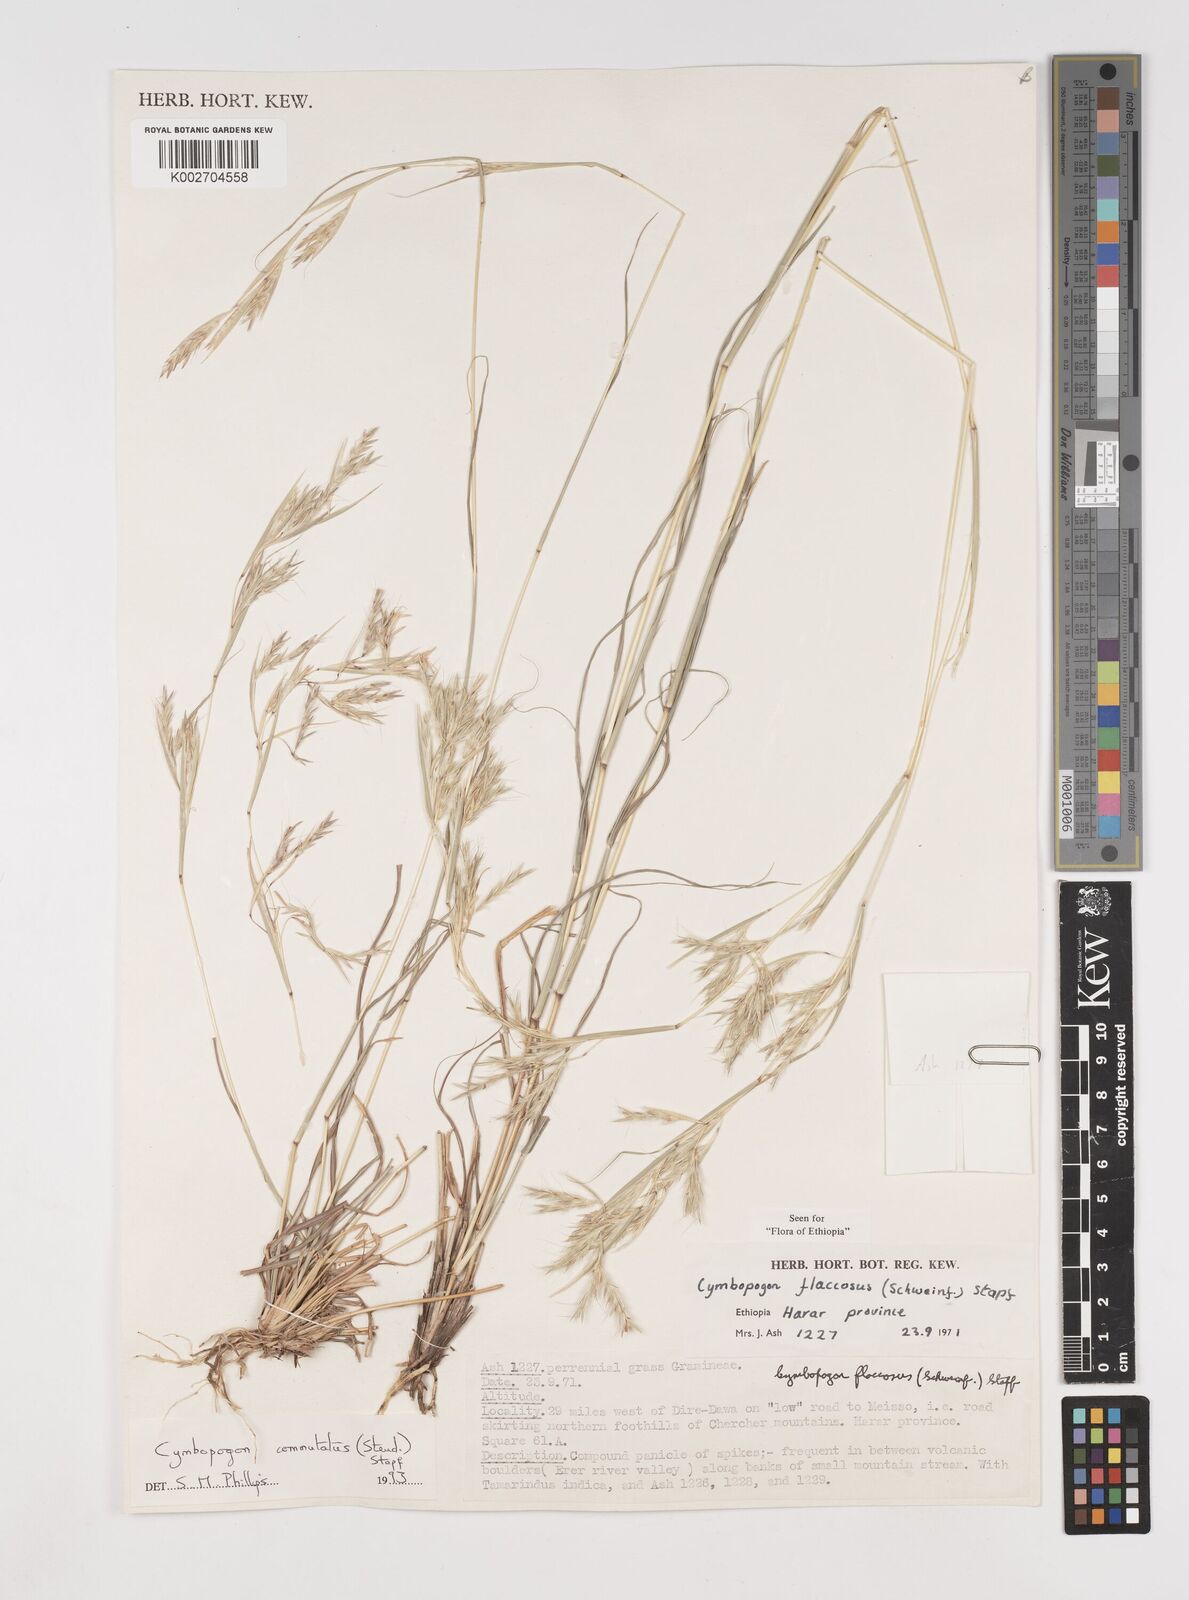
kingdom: Plantae
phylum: Tracheophyta
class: Liliopsida
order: Poales
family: Poaceae
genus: Cymbopogon
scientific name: Cymbopogon commutatus
